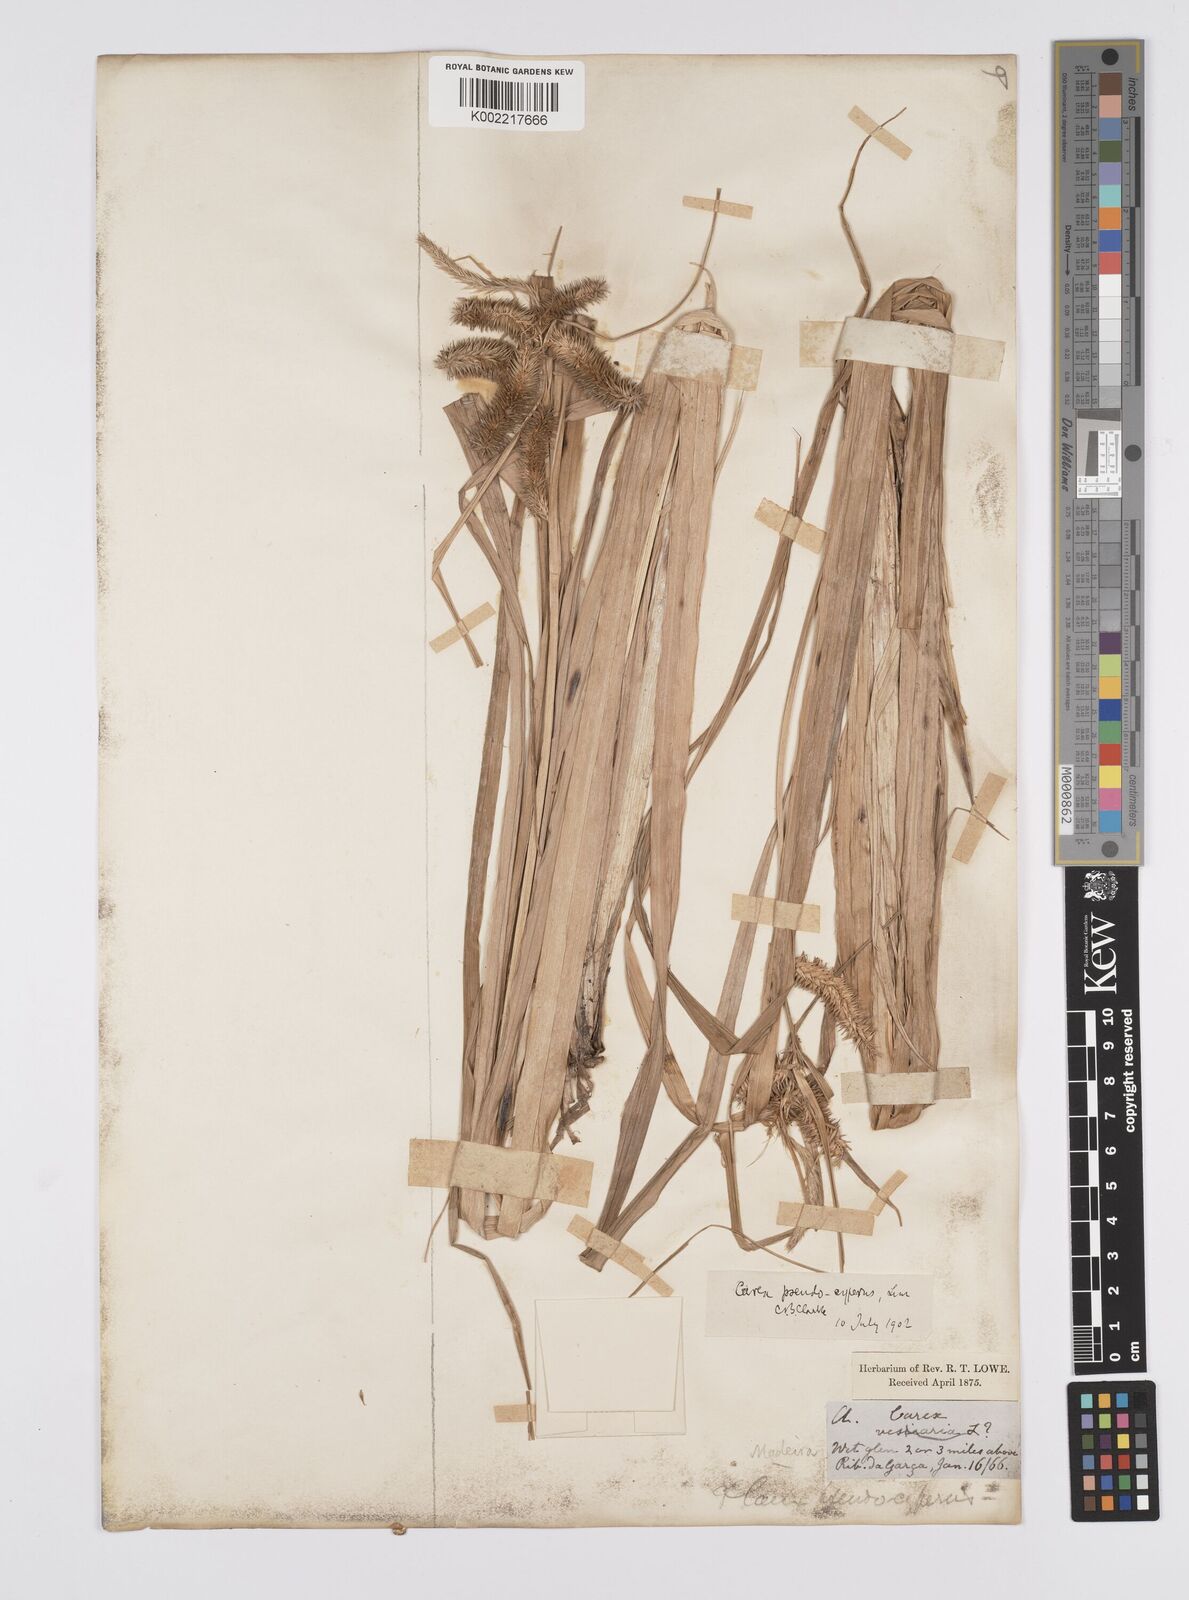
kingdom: Plantae
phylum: Tracheophyta
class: Liliopsida
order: Poales
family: Cyperaceae
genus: Carex
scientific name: Carex pseudocyperus
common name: Cyperus sedge
